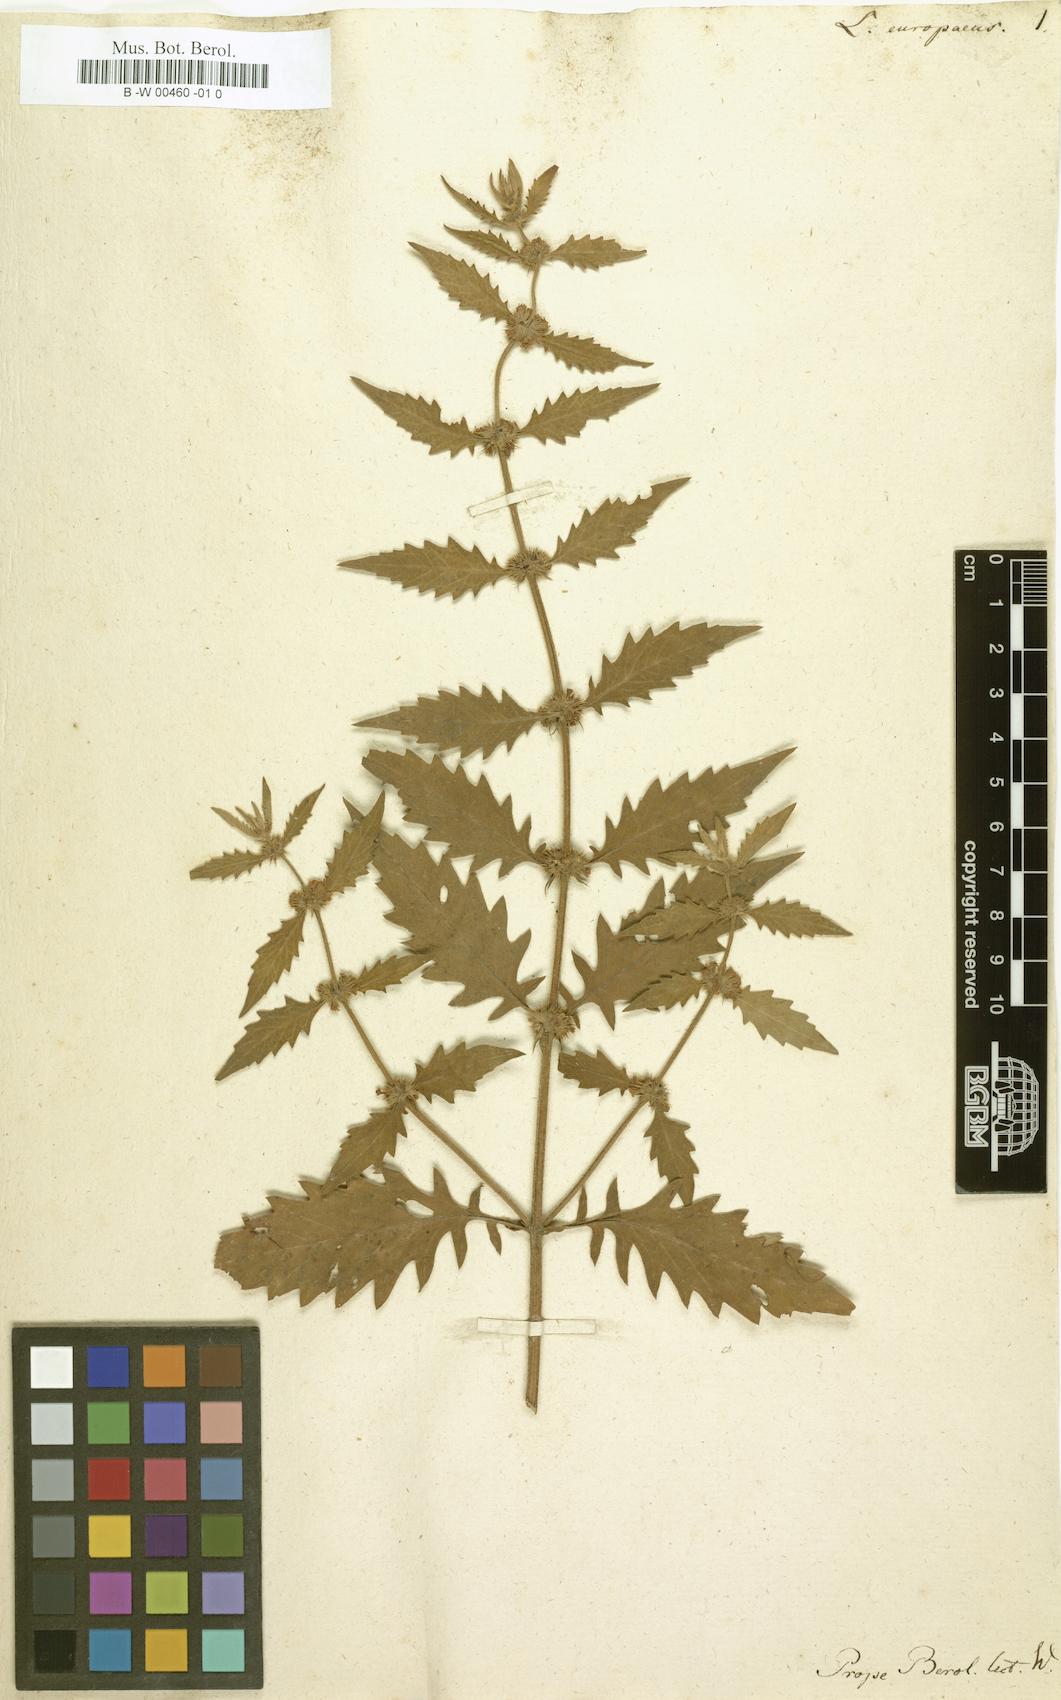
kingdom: Plantae
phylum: Tracheophyta
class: Magnoliopsida
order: Lamiales
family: Lamiaceae
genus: Lycopus
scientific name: Lycopus europaeus
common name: European bugleweed
